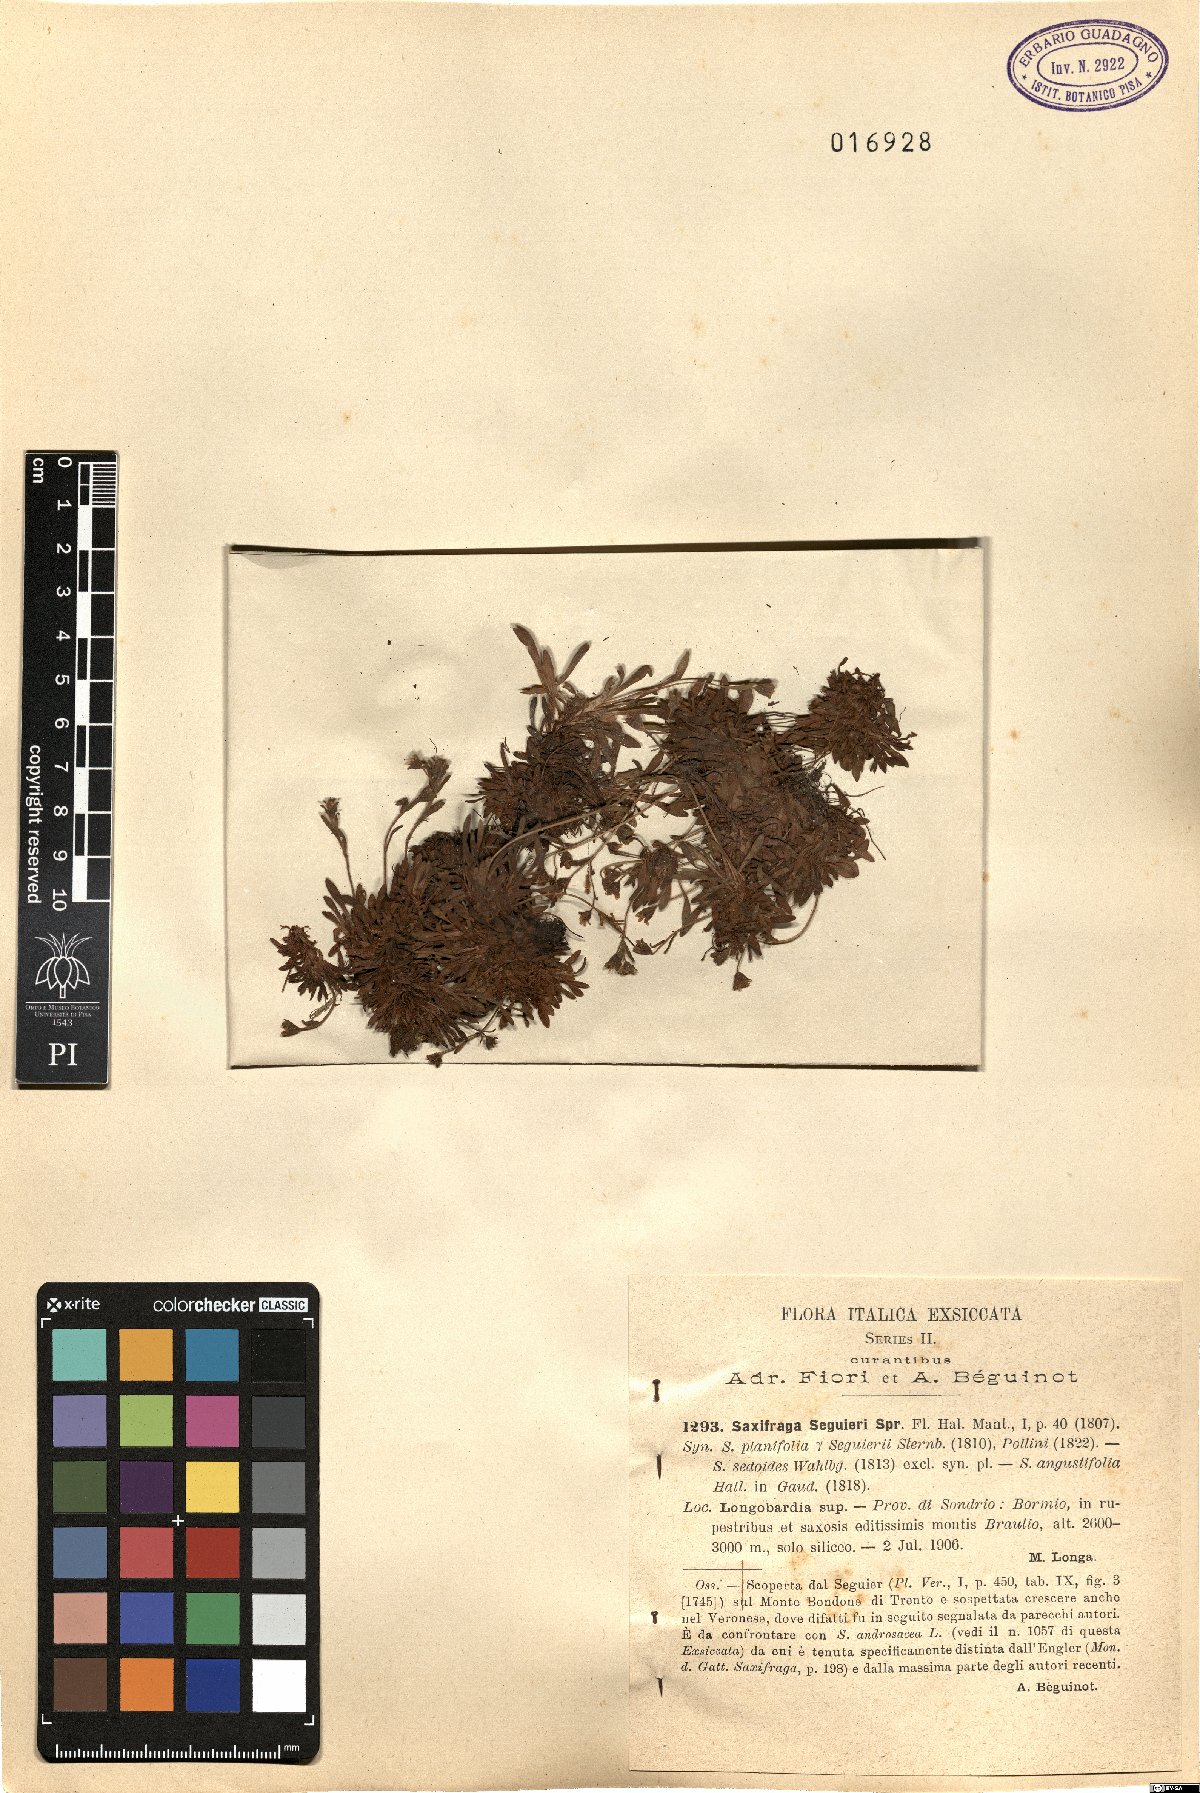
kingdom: Plantae
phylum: Tracheophyta
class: Magnoliopsida
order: Saxifragales
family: Saxifragaceae
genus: Saxifraga
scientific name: Saxifraga seguieri
